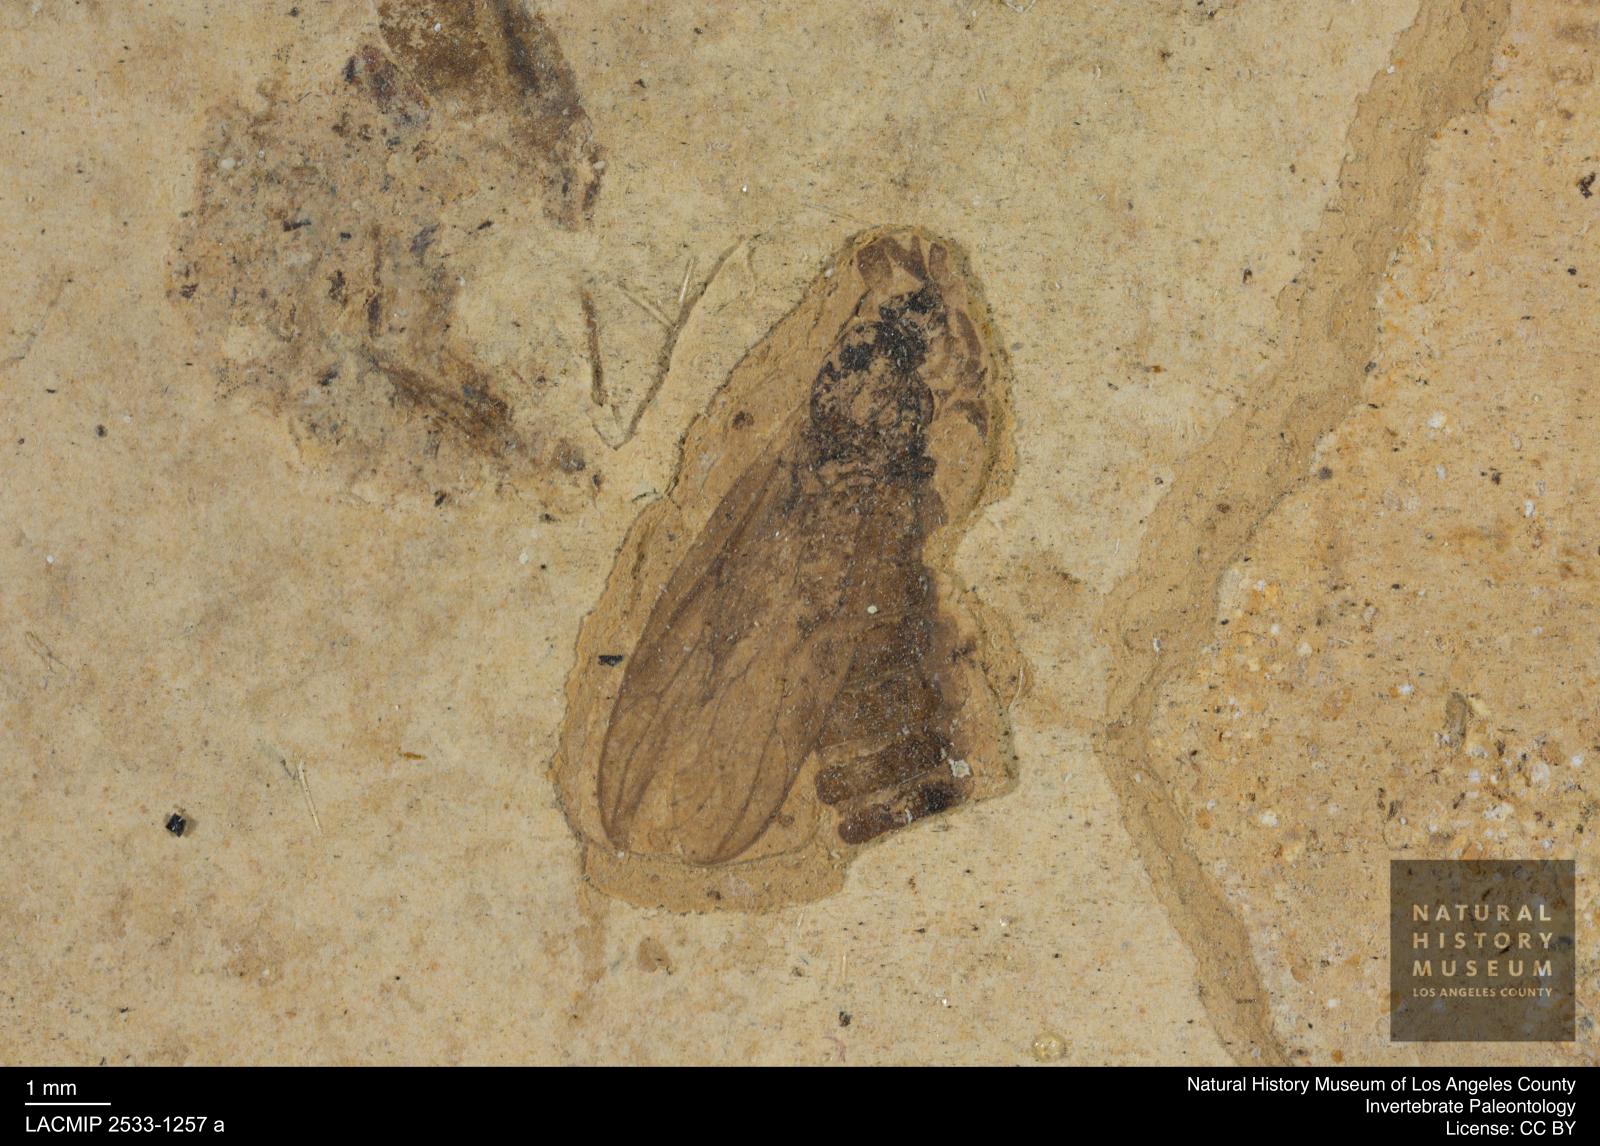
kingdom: Animalia
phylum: Arthropoda
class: Insecta
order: Diptera
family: Bibionidae
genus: Plecia
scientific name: Plecia hypogaea
